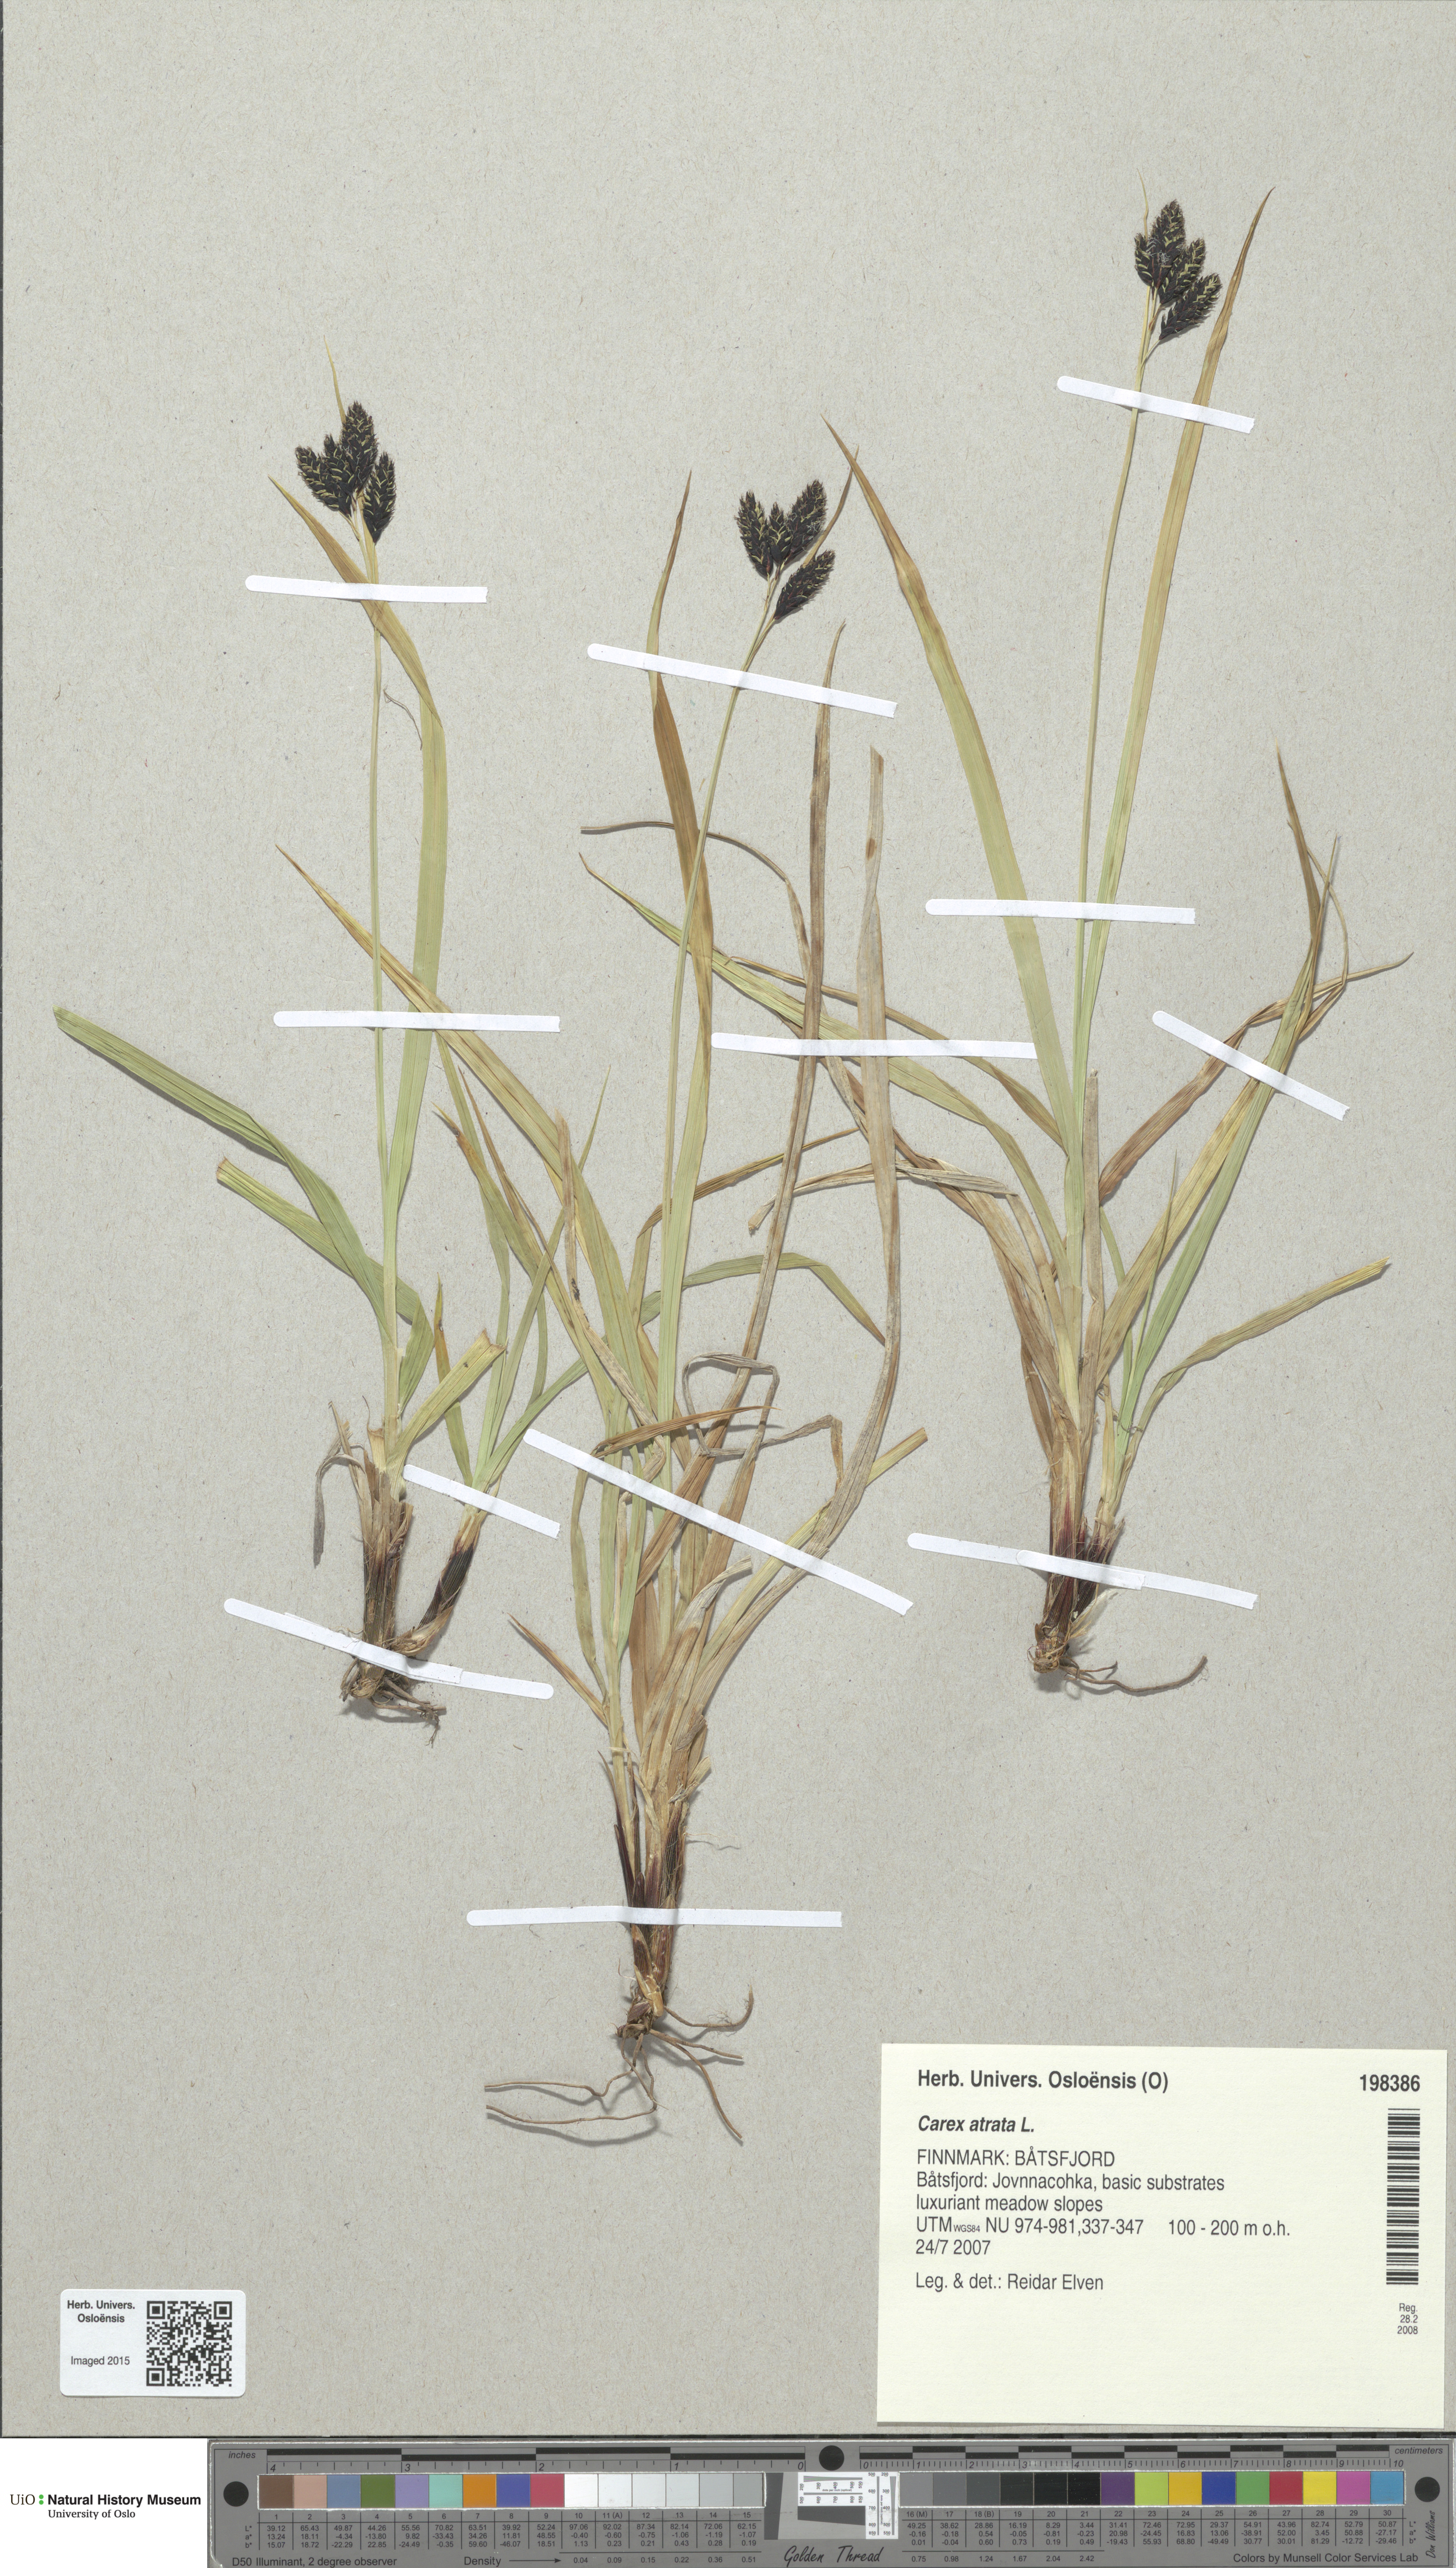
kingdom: Plantae
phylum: Tracheophyta
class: Liliopsida
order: Poales
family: Cyperaceae
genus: Carex
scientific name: Carex atrata
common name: Black alpine sedge
